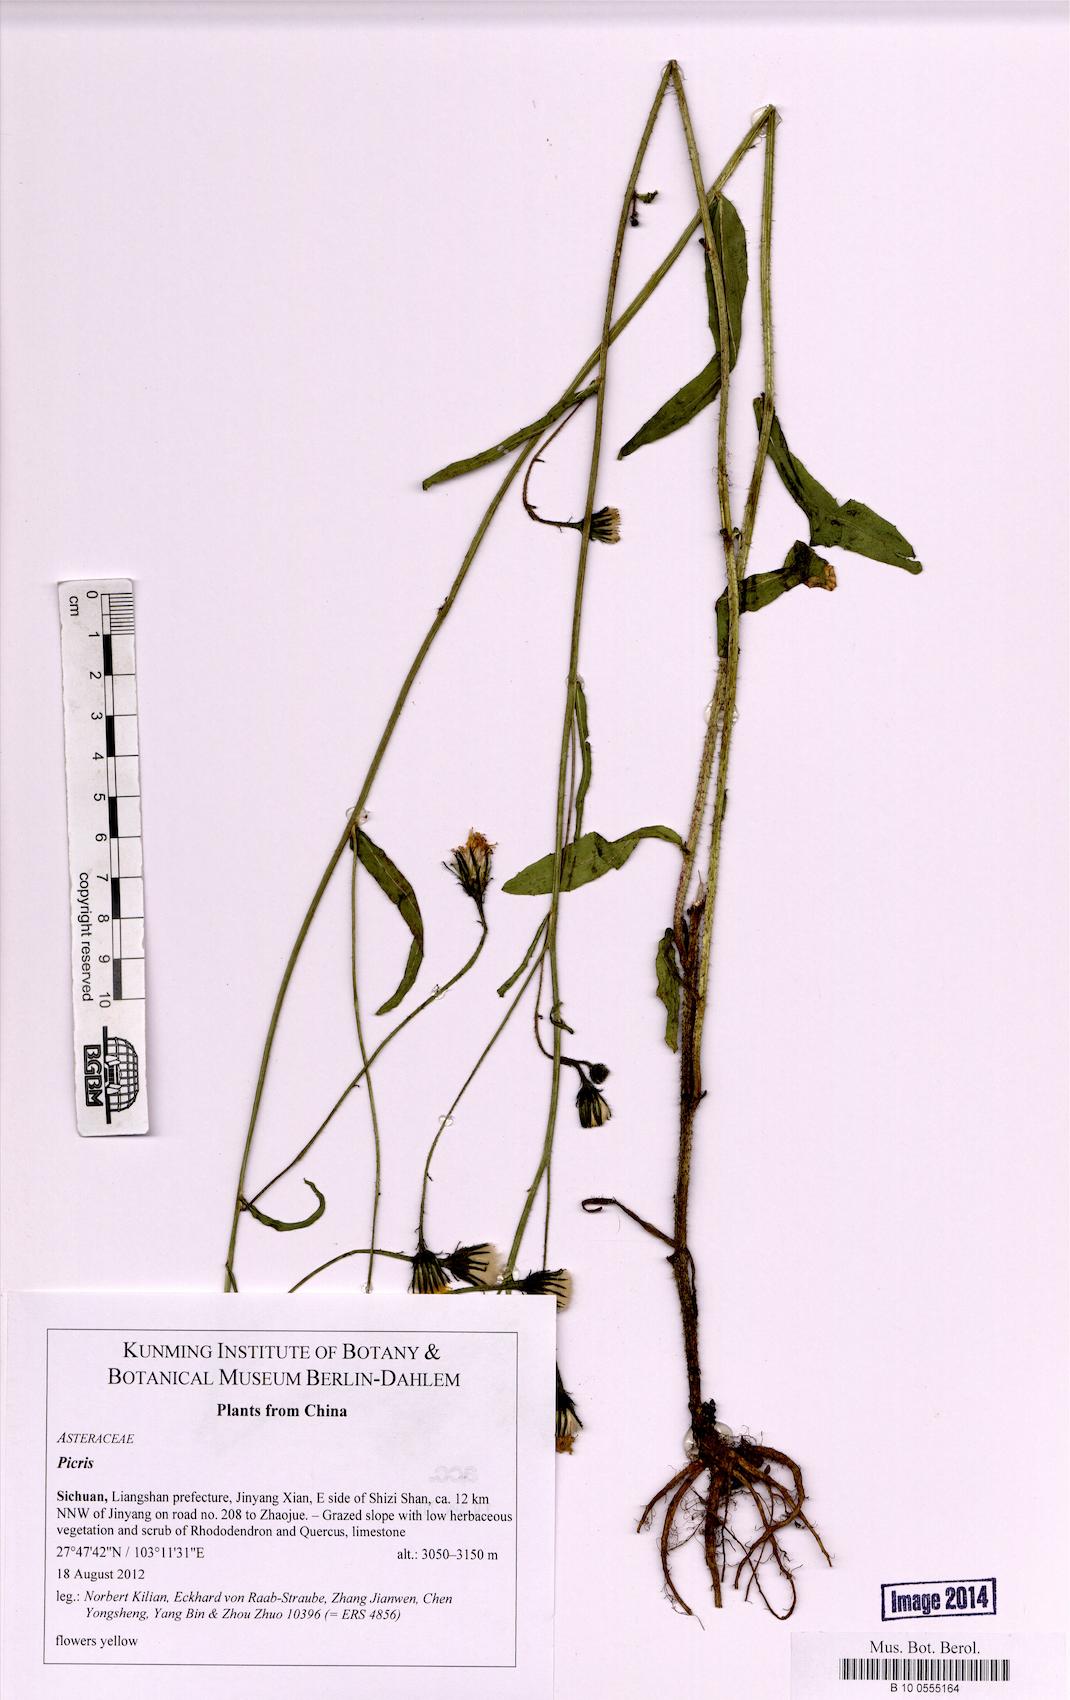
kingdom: Plantae
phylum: Tracheophyta
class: Magnoliopsida
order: Asterales
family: Asteraceae
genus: Picris
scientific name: Picris
